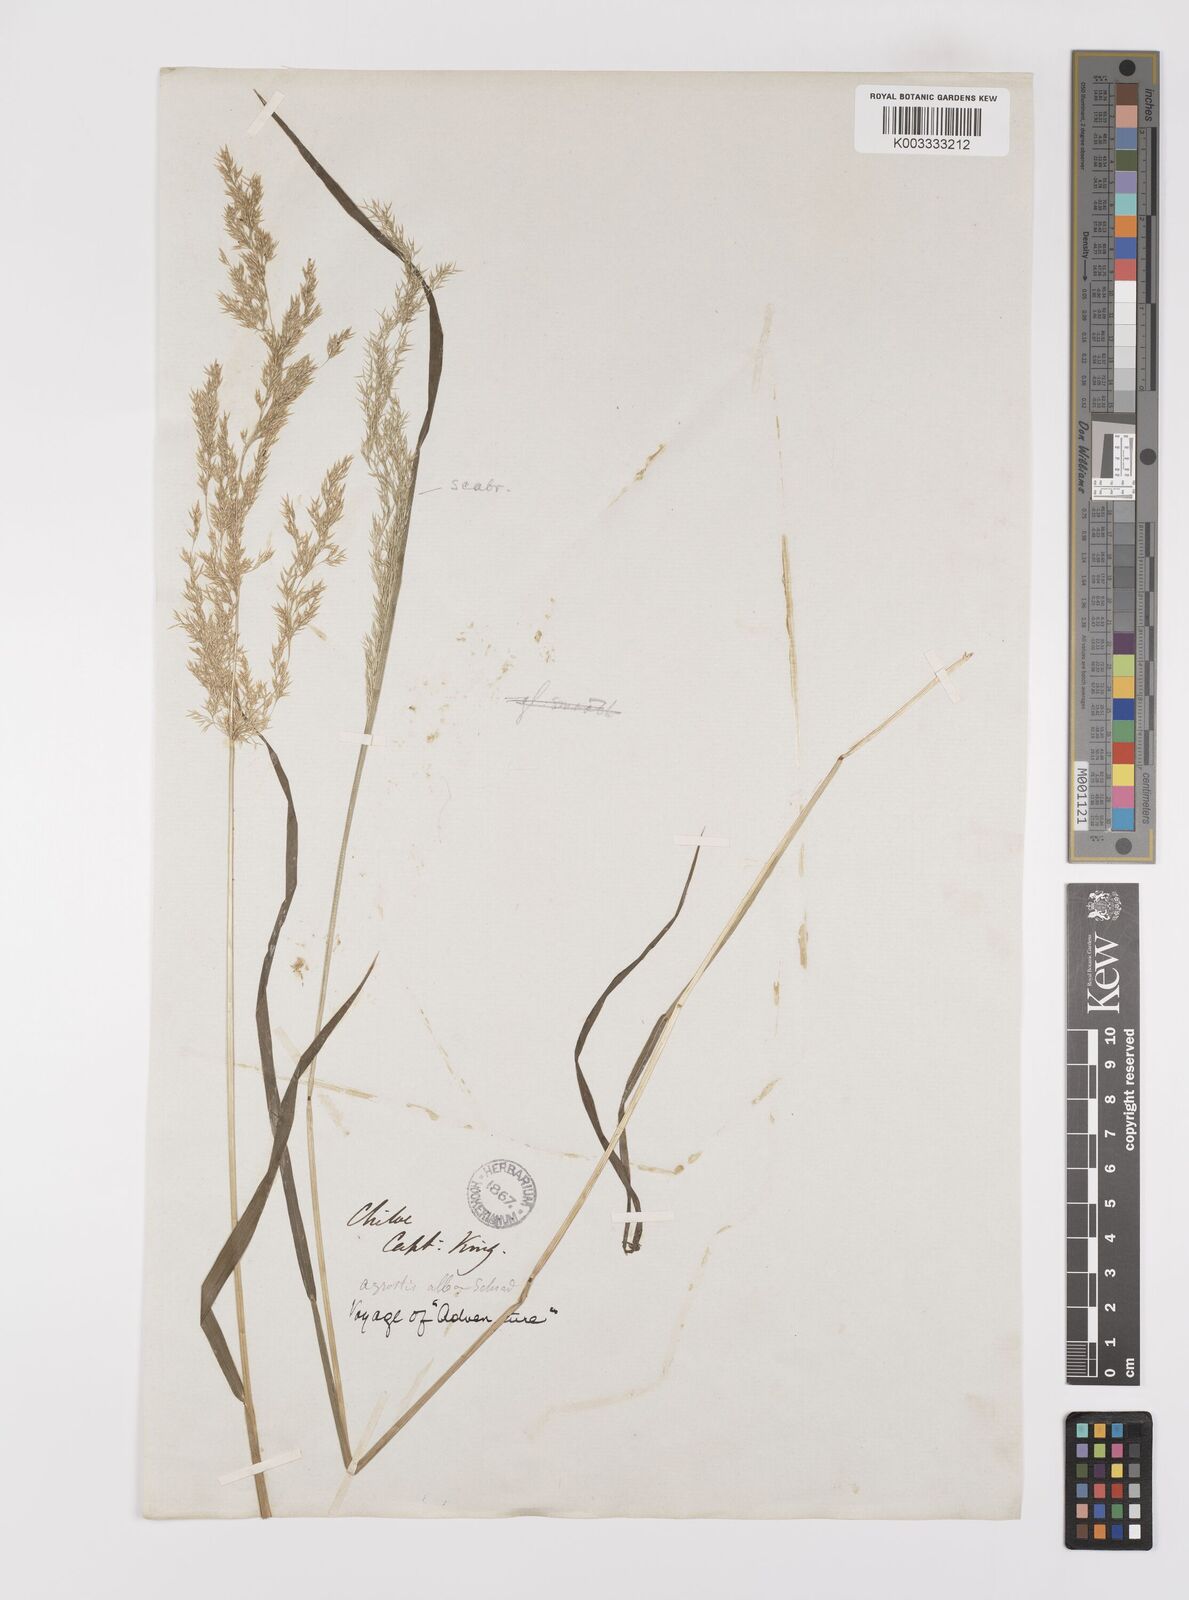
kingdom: Plantae
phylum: Tracheophyta
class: Liliopsida
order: Poales
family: Poaceae
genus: Polypogon
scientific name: Polypogon exasperatus
